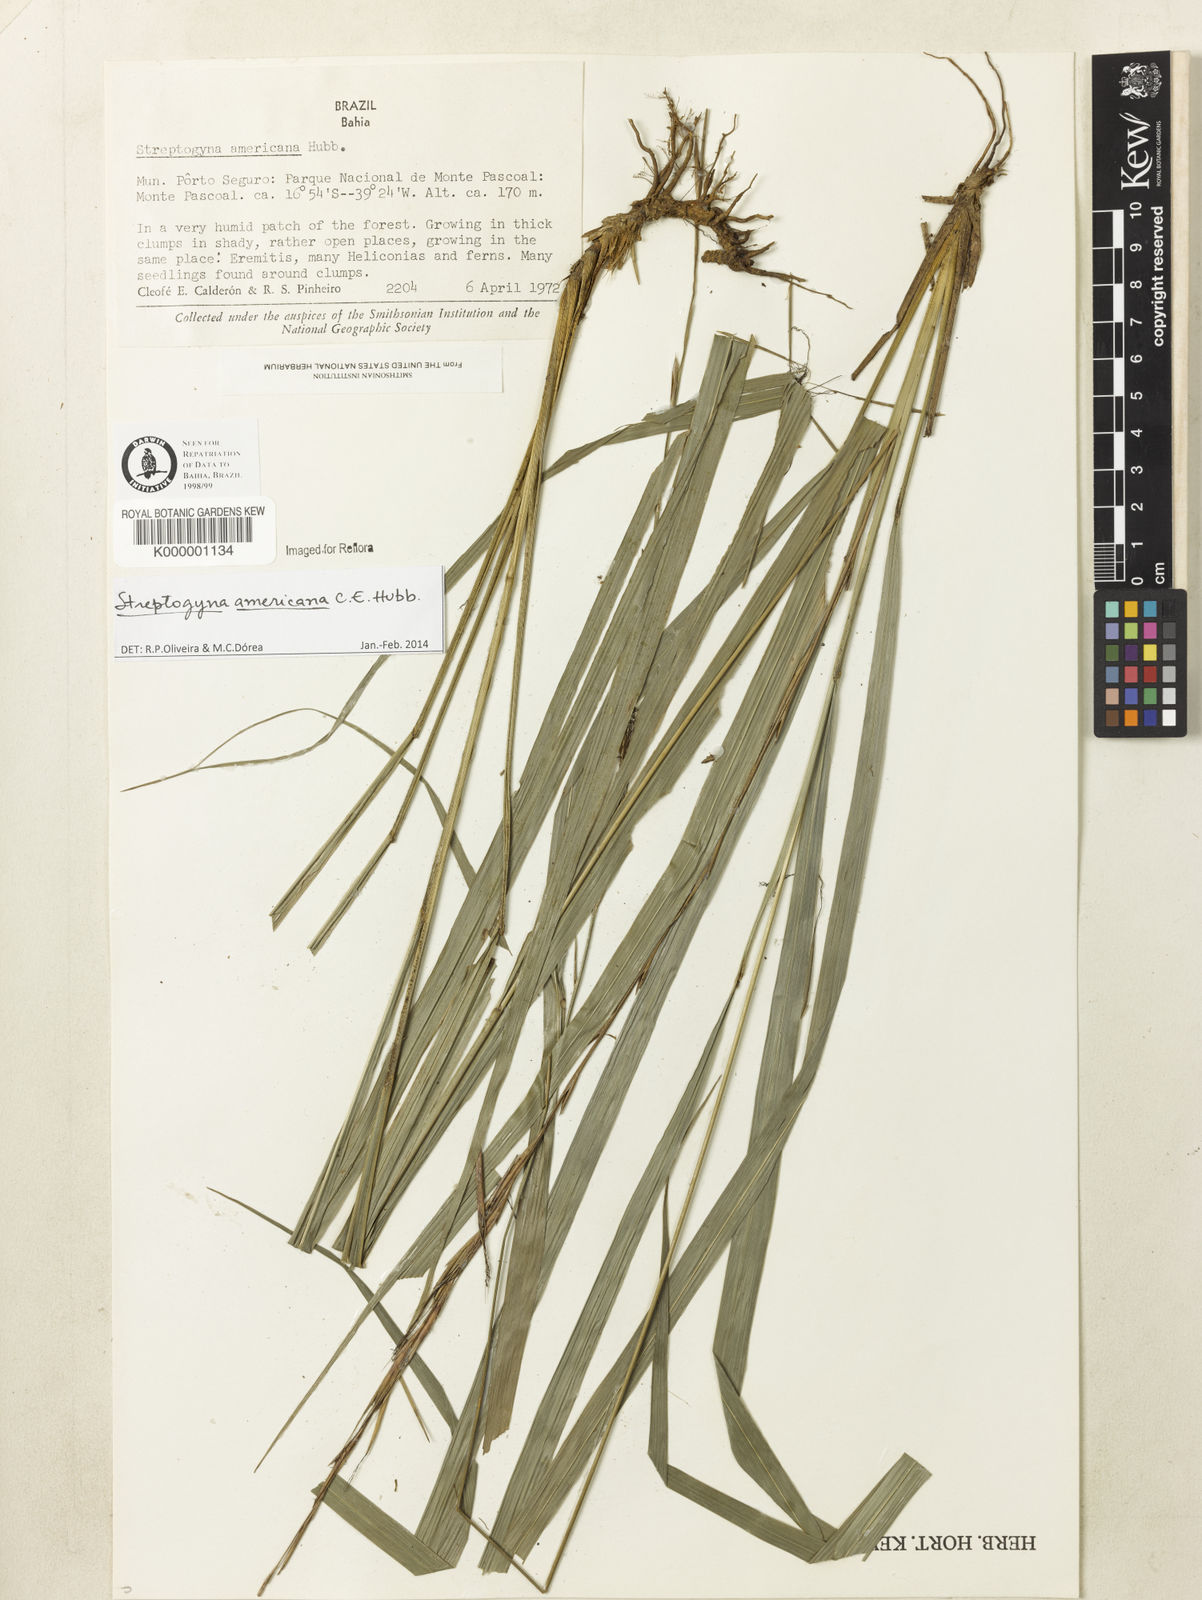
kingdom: Plantae
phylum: Tracheophyta
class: Liliopsida
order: Poales
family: Poaceae
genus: Streptogyna
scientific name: Streptogyna americana
